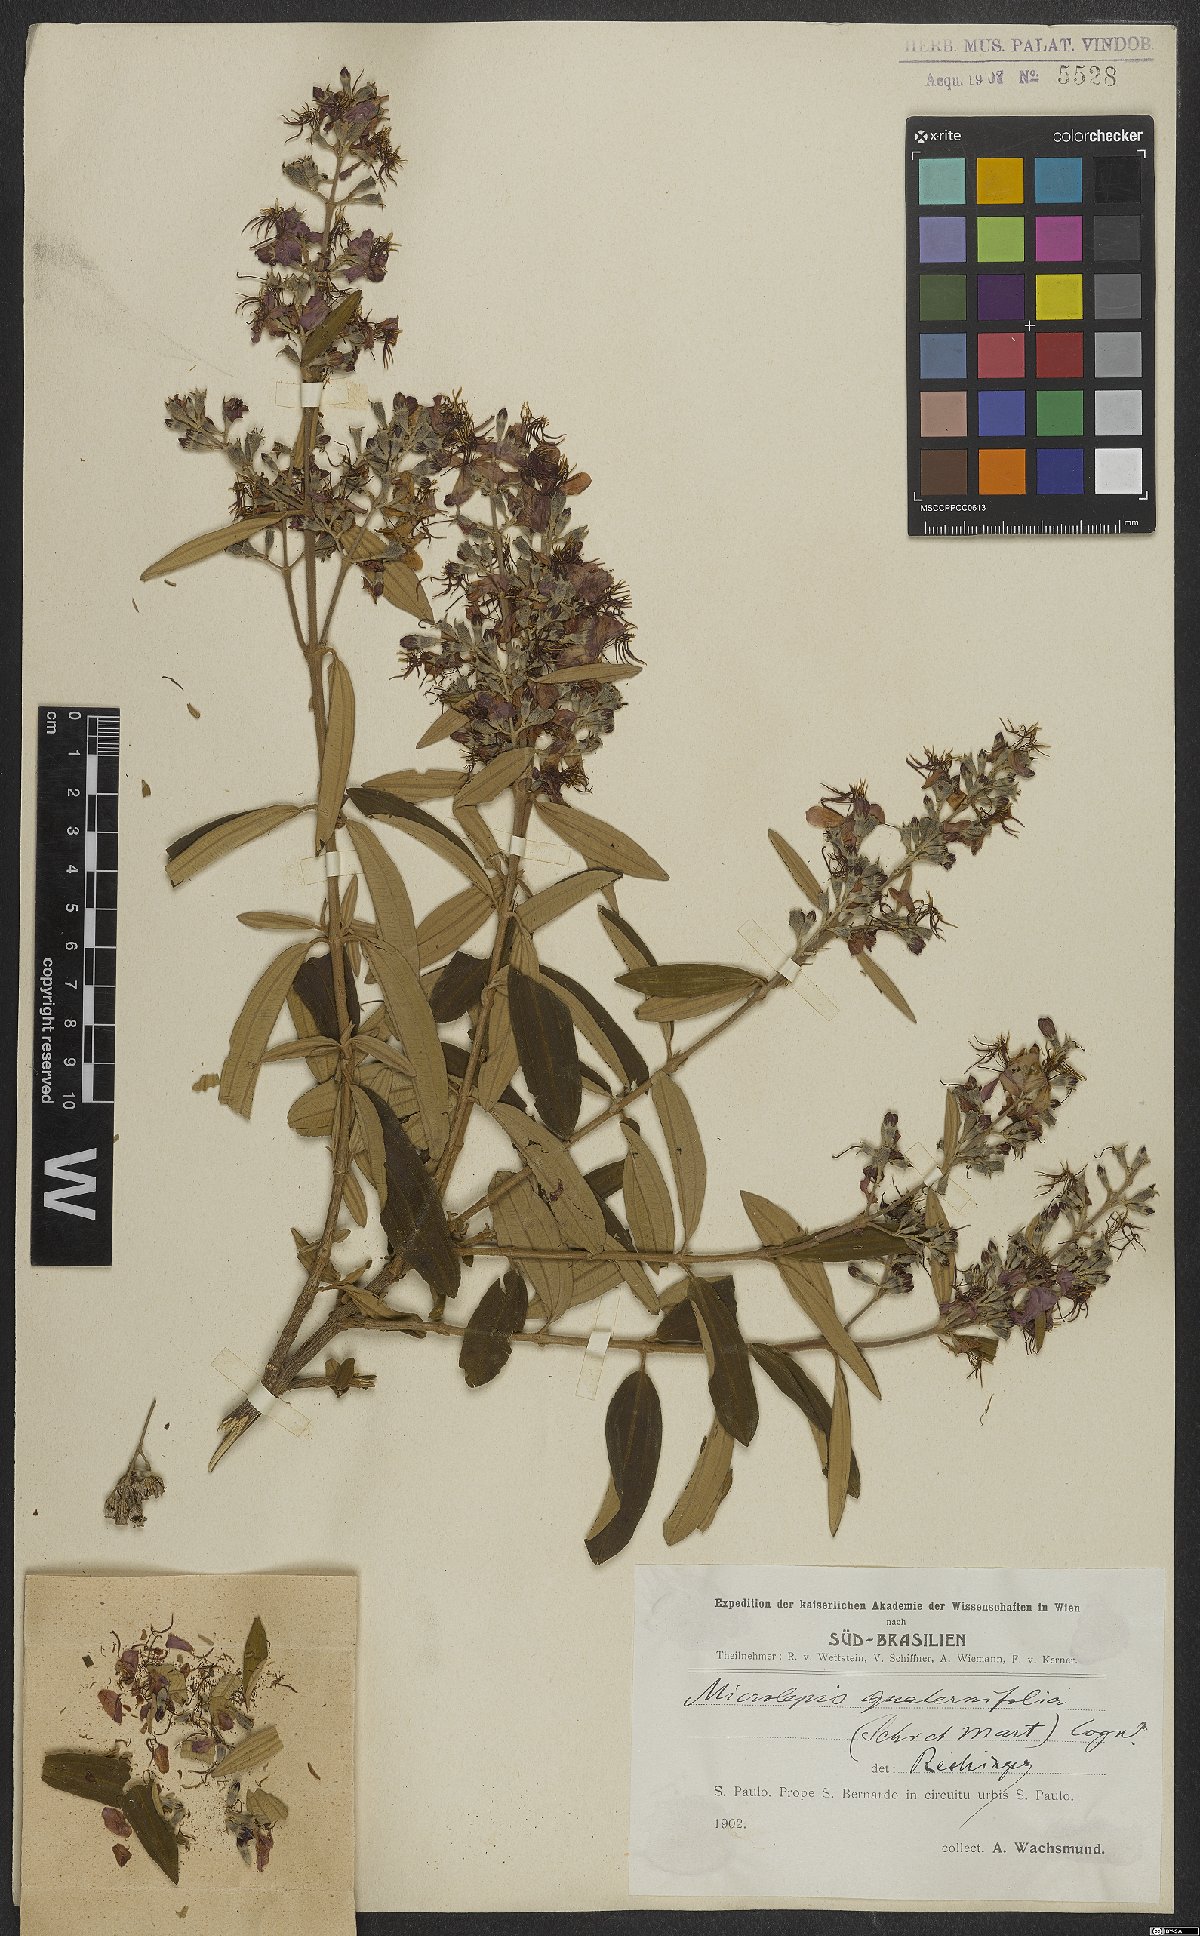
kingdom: Plantae
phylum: Tracheophyta
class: Magnoliopsida
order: Myrtales
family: Melastomataceae
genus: Pleroma
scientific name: Pleroma kleinii
